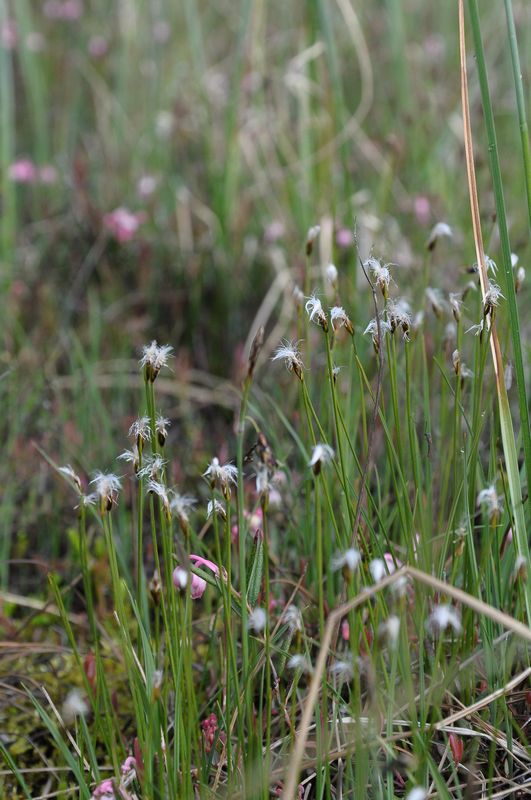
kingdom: Plantae
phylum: Tracheophyta
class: Liliopsida
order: Poales
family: Cyperaceae
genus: Trichophorum
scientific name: Trichophorum alpinum
